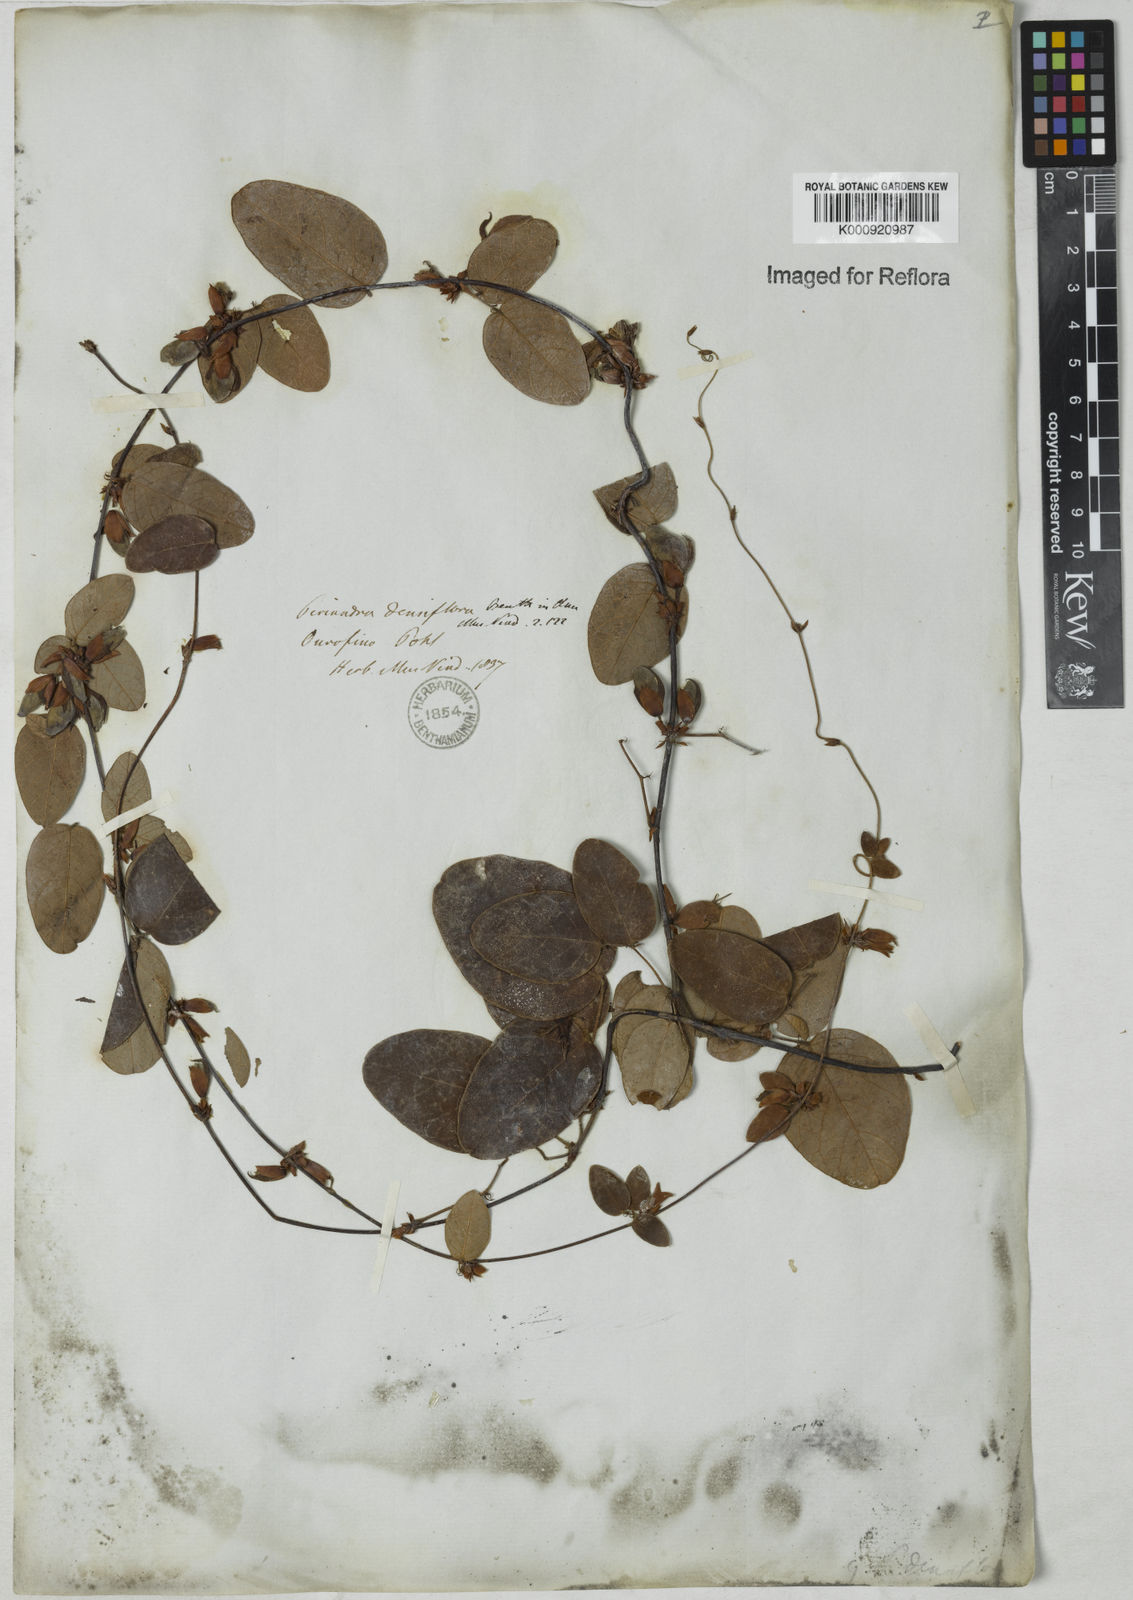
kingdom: Plantae
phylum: Tracheophyta
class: Magnoliopsida
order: Fabales
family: Fabaceae
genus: Periandra
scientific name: Periandra densiflora
